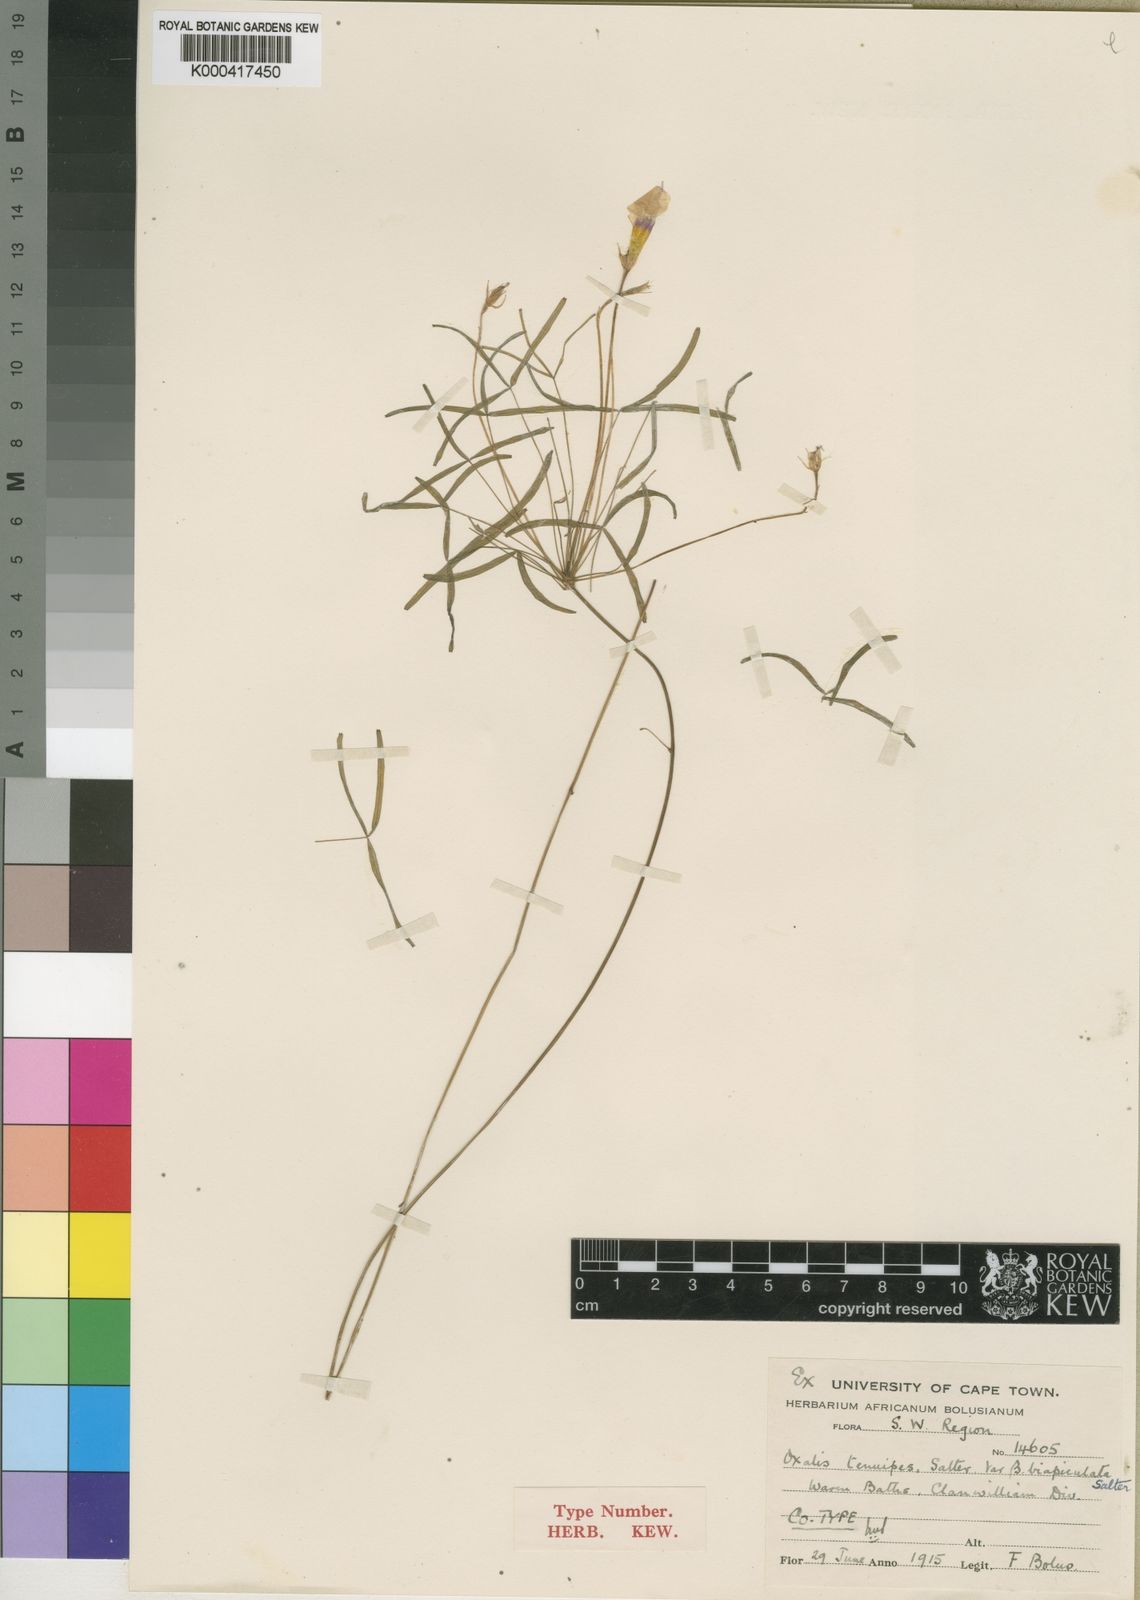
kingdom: Plantae
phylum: Tracheophyta
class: Magnoliopsida
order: Oxalidales
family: Oxalidaceae
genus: Oxalis
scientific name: Oxalis tenuipes
